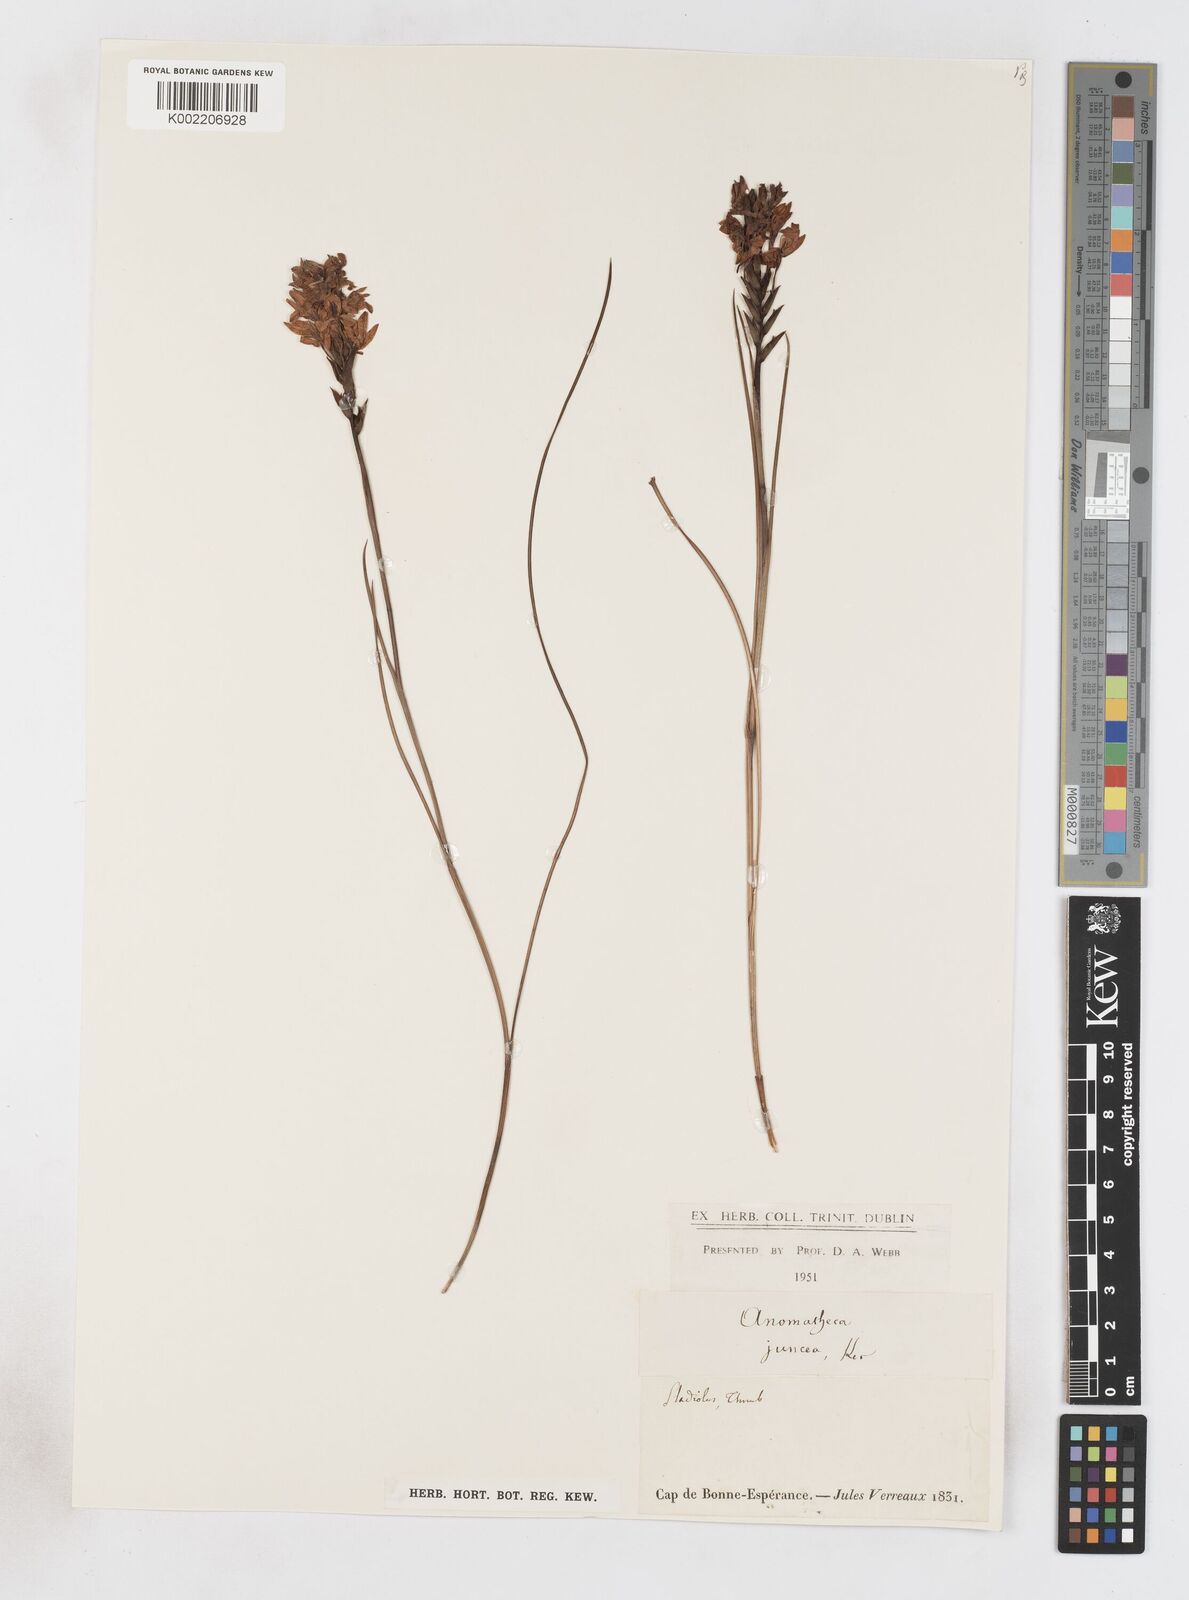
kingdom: Plantae
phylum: Tracheophyta
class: Liliopsida
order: Asparagales
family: Iridaceae
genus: Thereianthus
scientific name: Thereianthus spicatus
